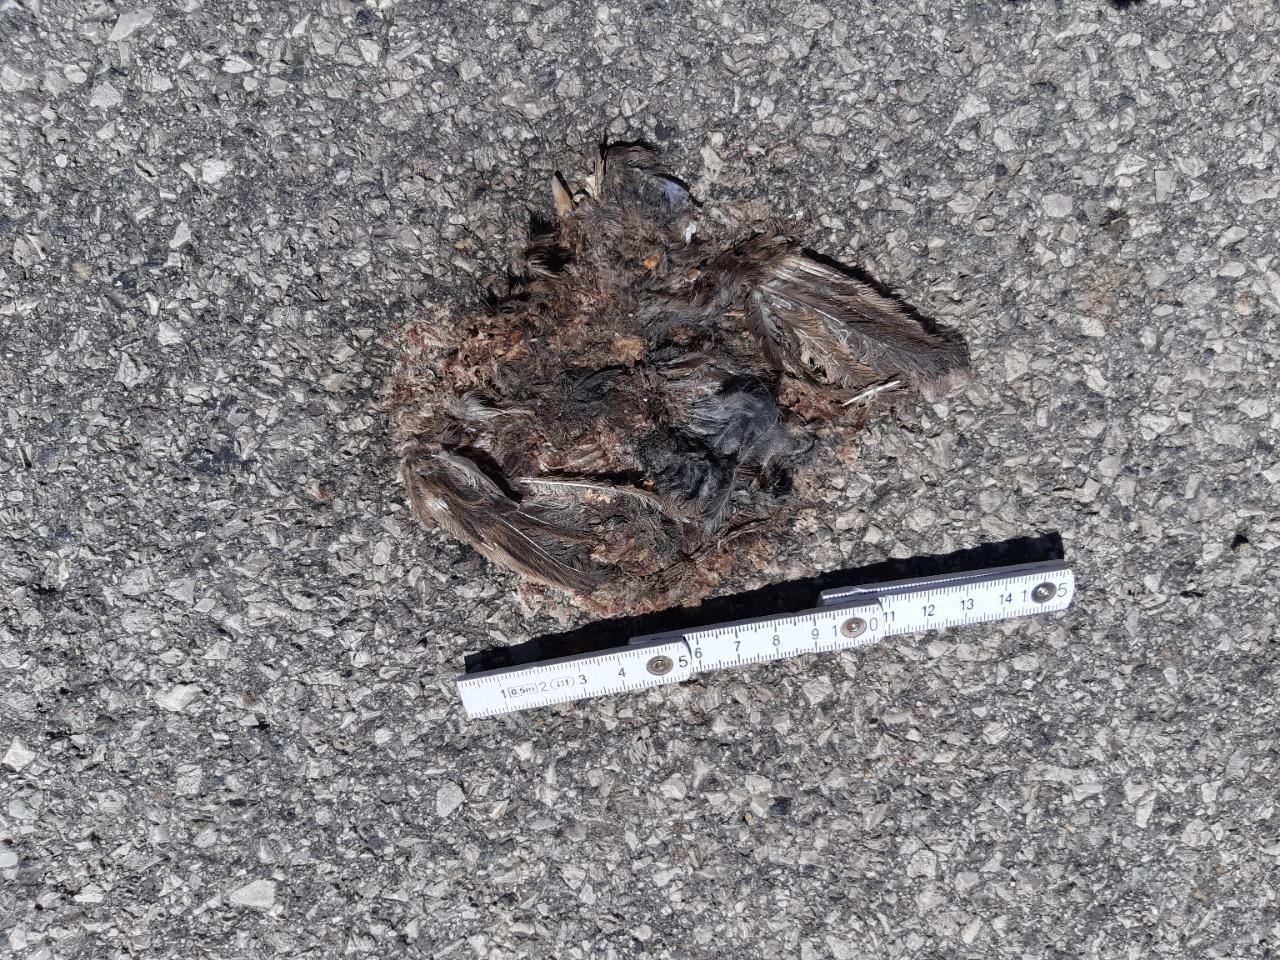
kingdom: Animalia
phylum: Chordata
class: Aves
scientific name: Aves
